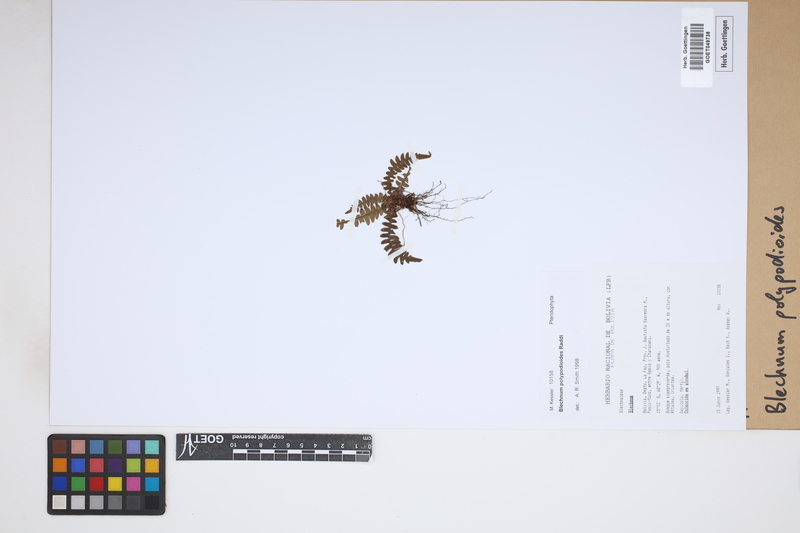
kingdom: Plantae
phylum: Tracheophyta
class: Polypodiopsida
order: Polypodiales
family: Blechnaceae
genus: Blechnum
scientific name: Blechnum polypodioides
